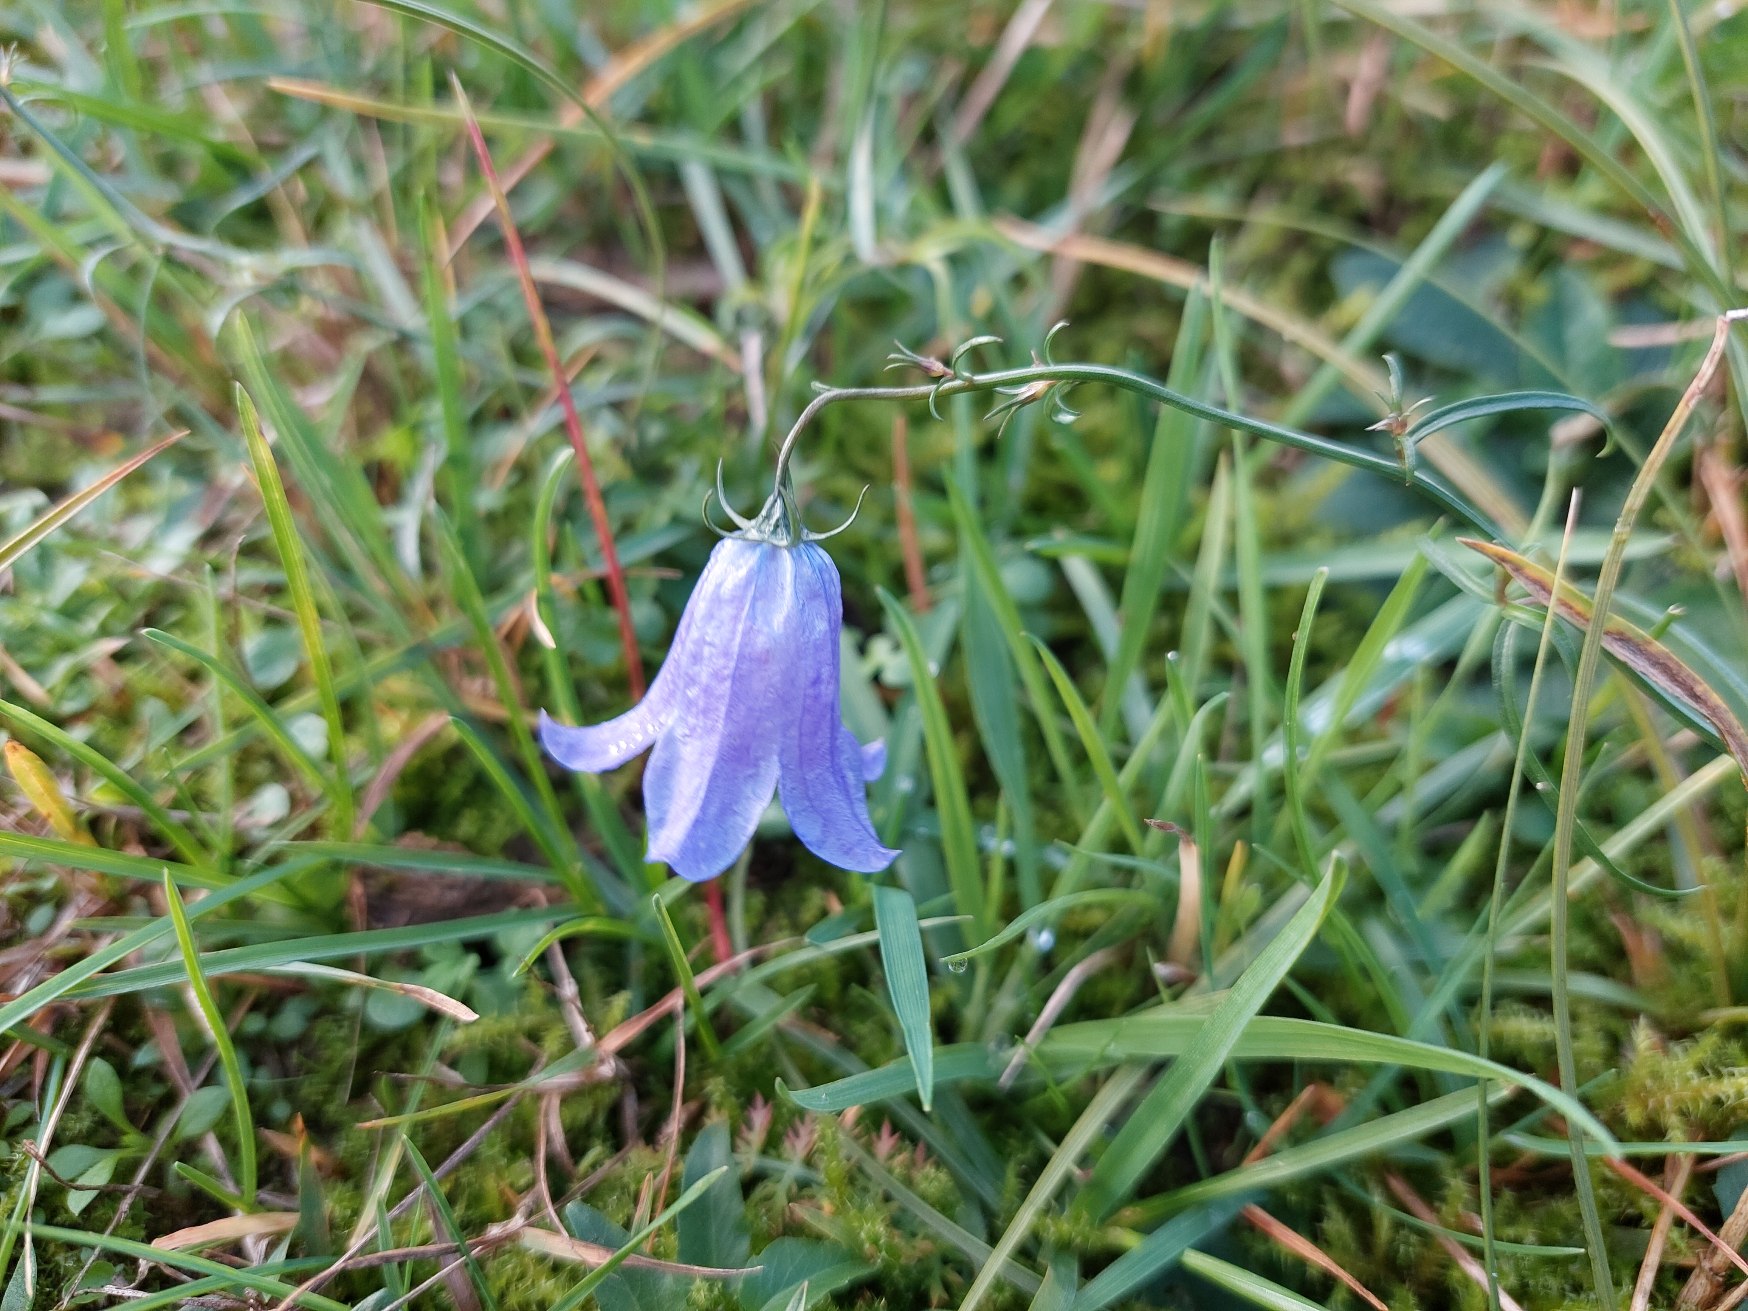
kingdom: Plantae
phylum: Tracheophyta
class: Magnoliopsida
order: Asterales
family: Campanulaceae
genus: Campanula
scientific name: Campanula rotundifolia
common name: Liden klokke
